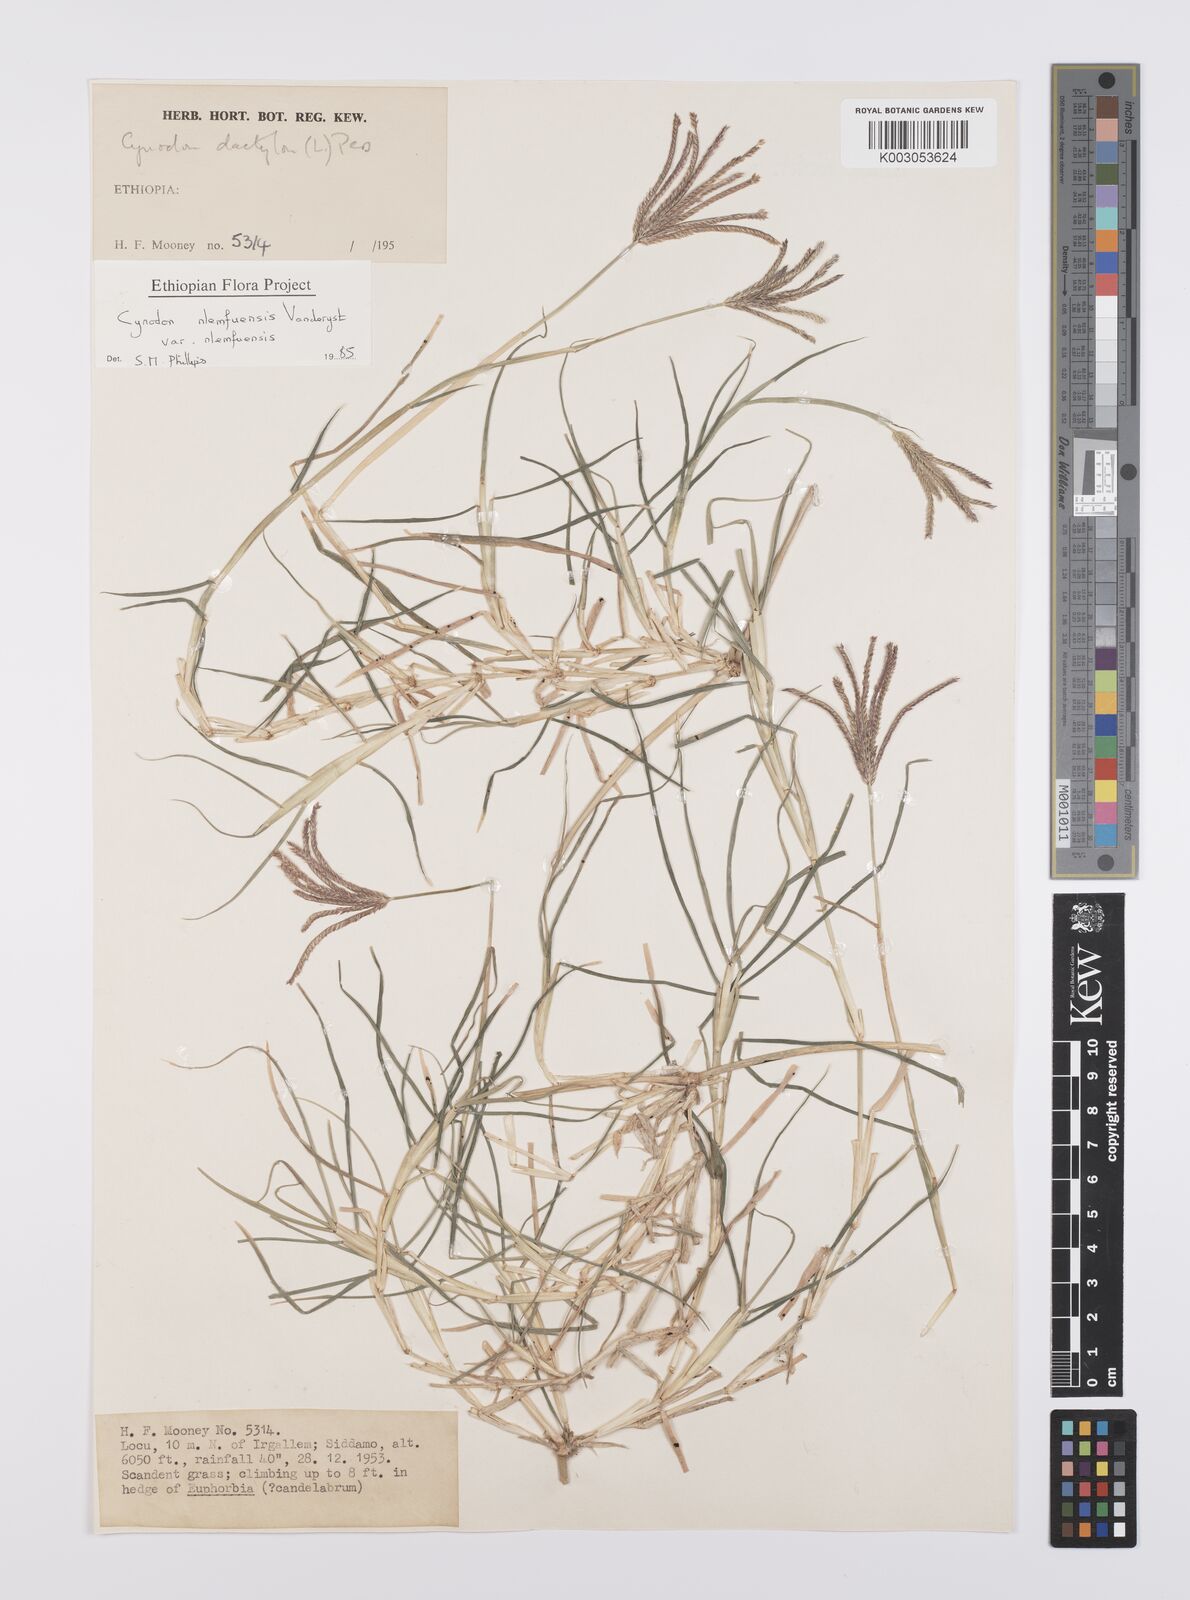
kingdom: Plantae
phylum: Tracheophyta
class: Liliopsida
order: Poales
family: Poaceae
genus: Cynodon
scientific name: Cynodon nlemfuensis
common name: African bermudagrass
